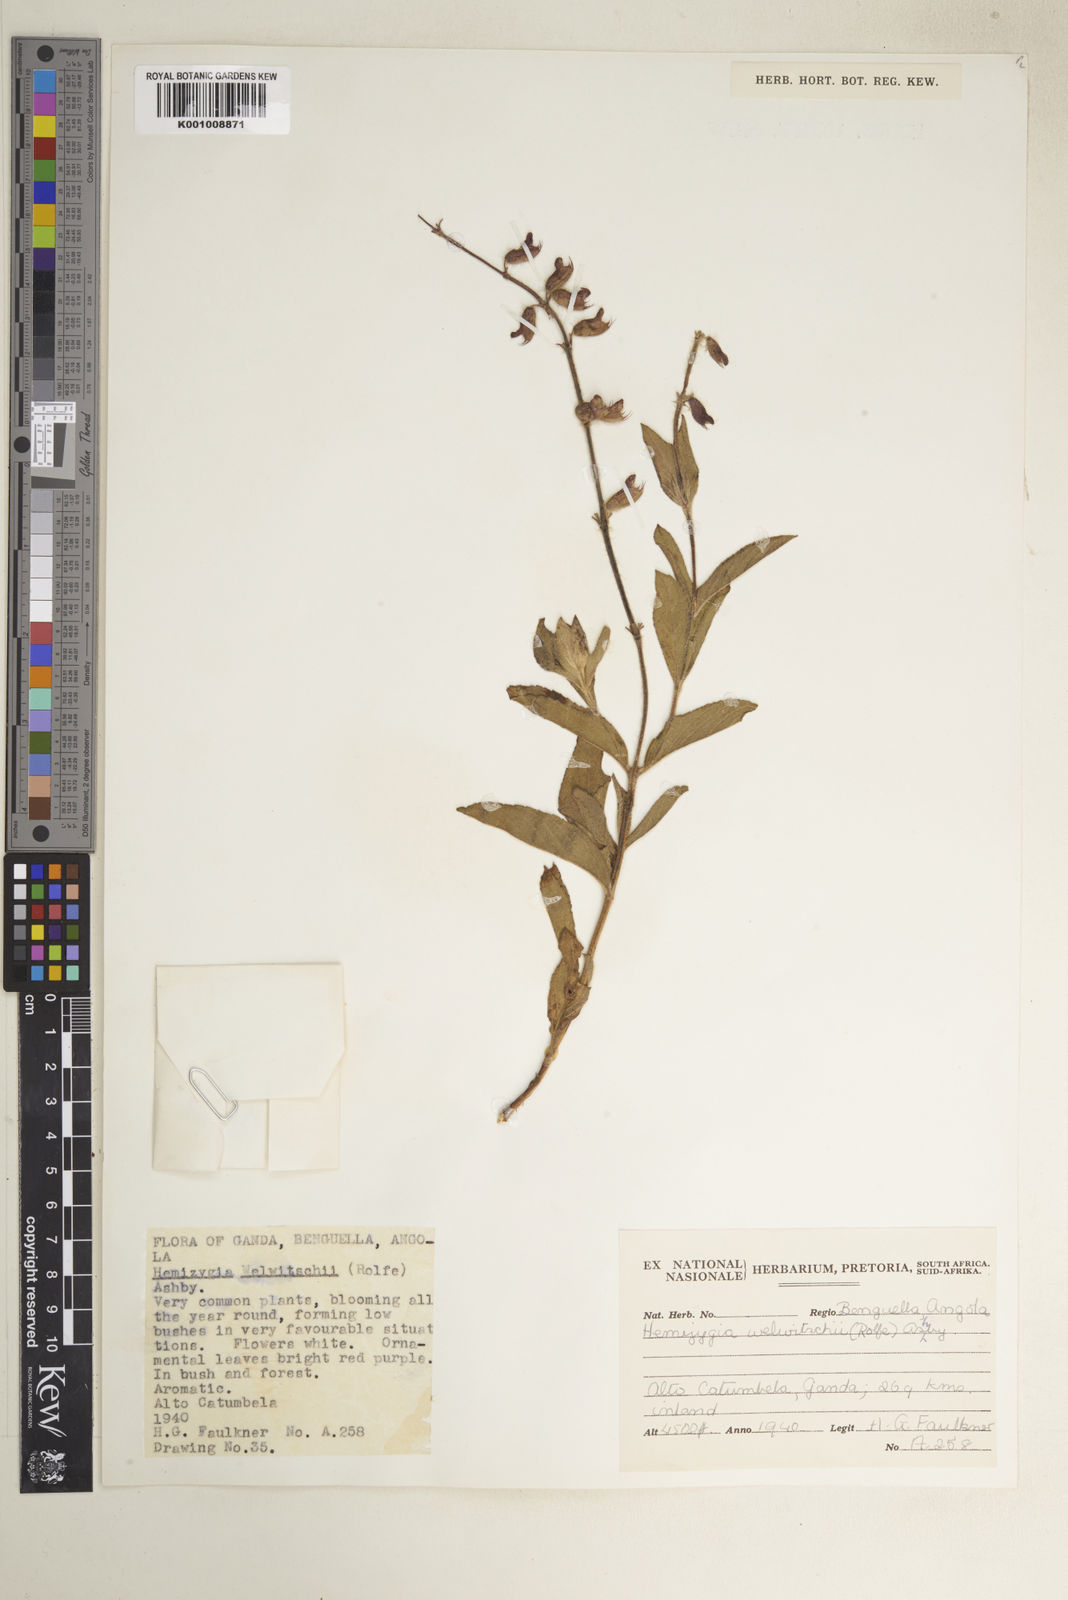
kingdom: Plantae
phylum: Tracheophyta
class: Magnoliopsida
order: Lamiales
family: Lamiaceae
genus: Syncolostemon
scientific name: Syncolostemon welwitschii
